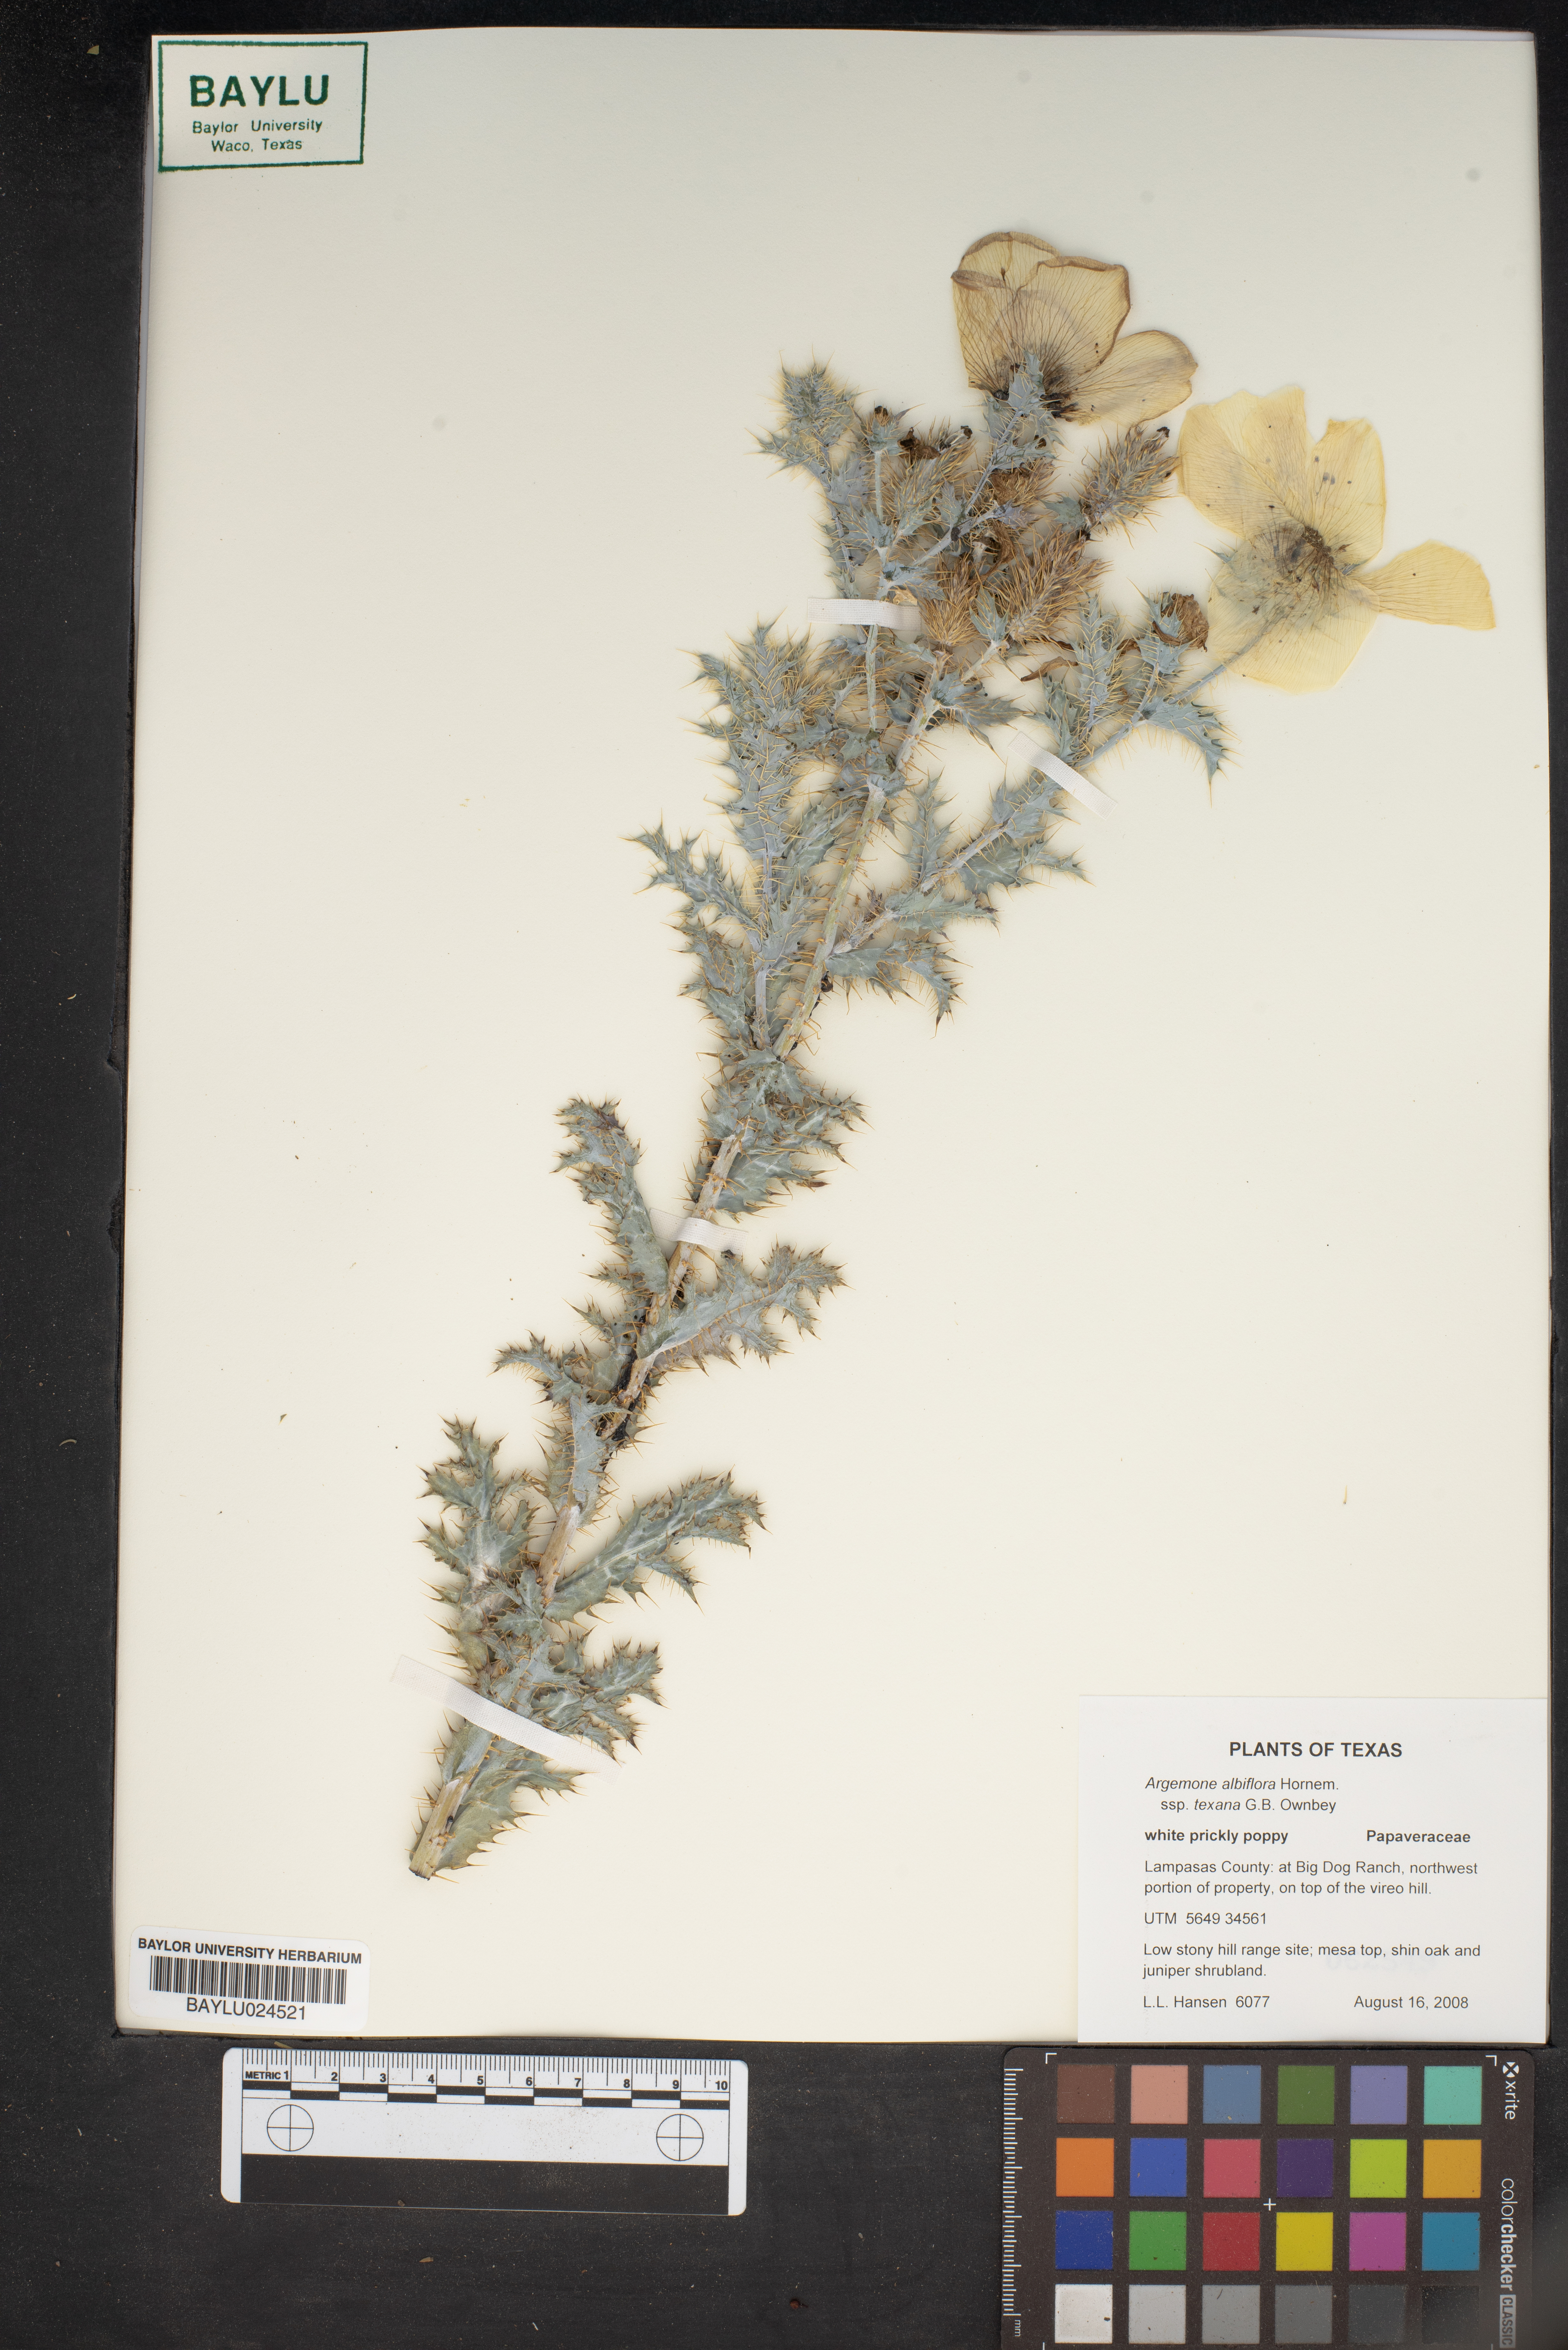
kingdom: Plantae
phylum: Tracheophyta
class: Magnoliopsida
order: Ranunculales
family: Papaveraceae
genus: Argemone
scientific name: Argemone albiflora
